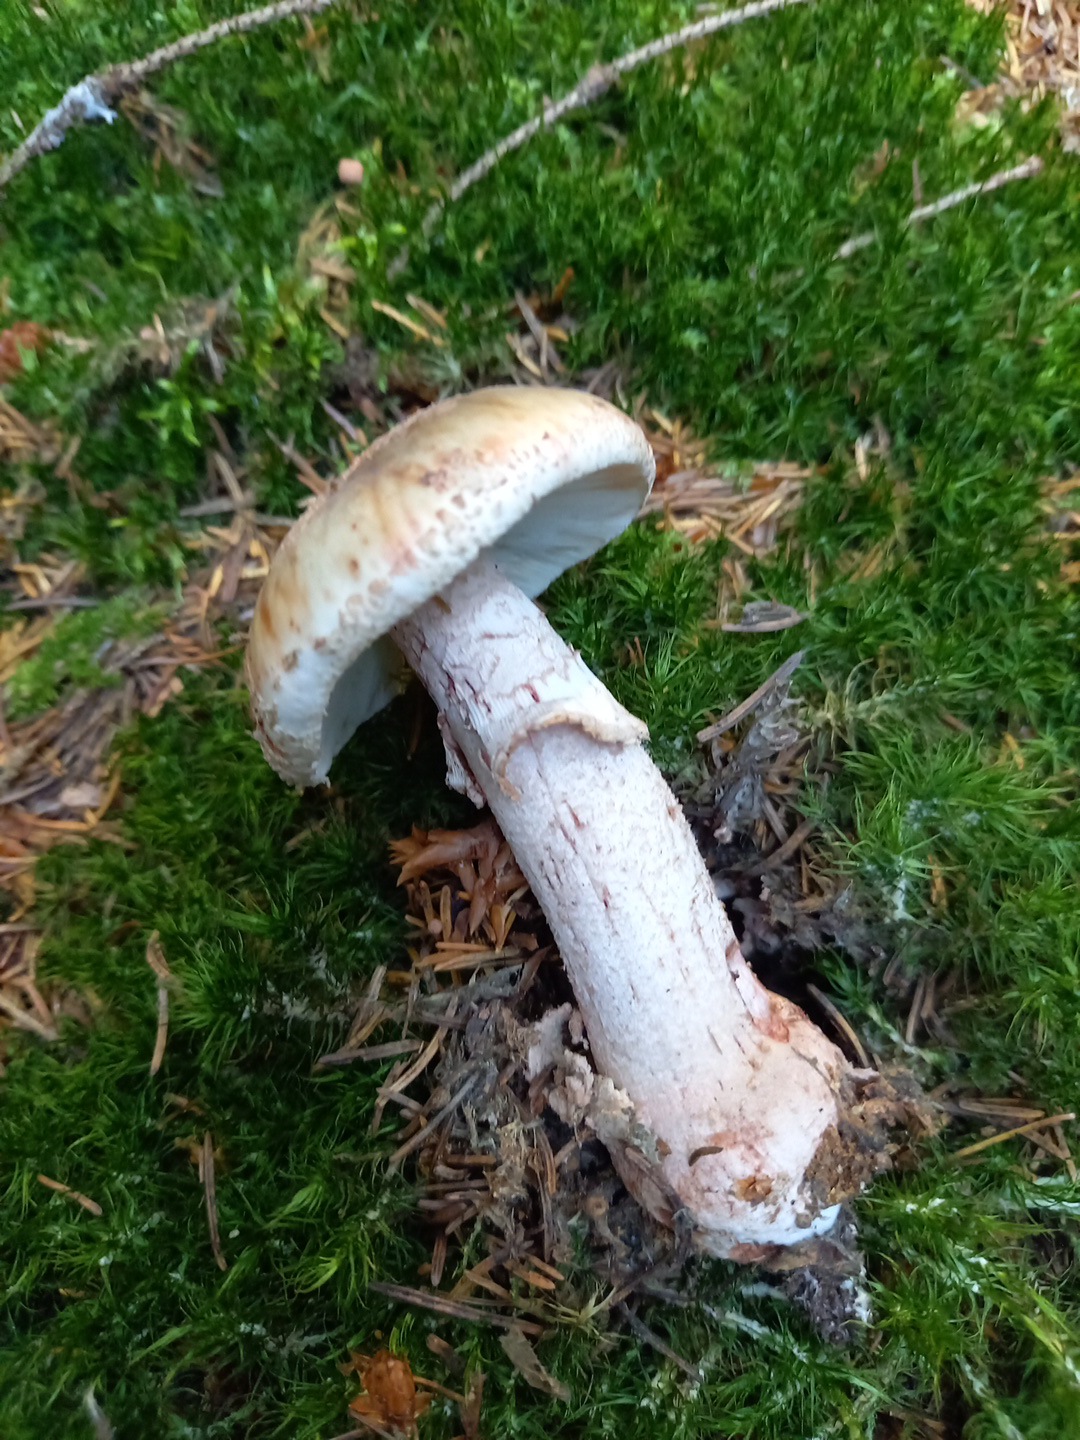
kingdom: Fungi
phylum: Basidiomycota
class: Agaricomycetes
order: Agaricales
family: Amanitaceae
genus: Amanita
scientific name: Amanita rubescens
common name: rødmende fluesvamp
